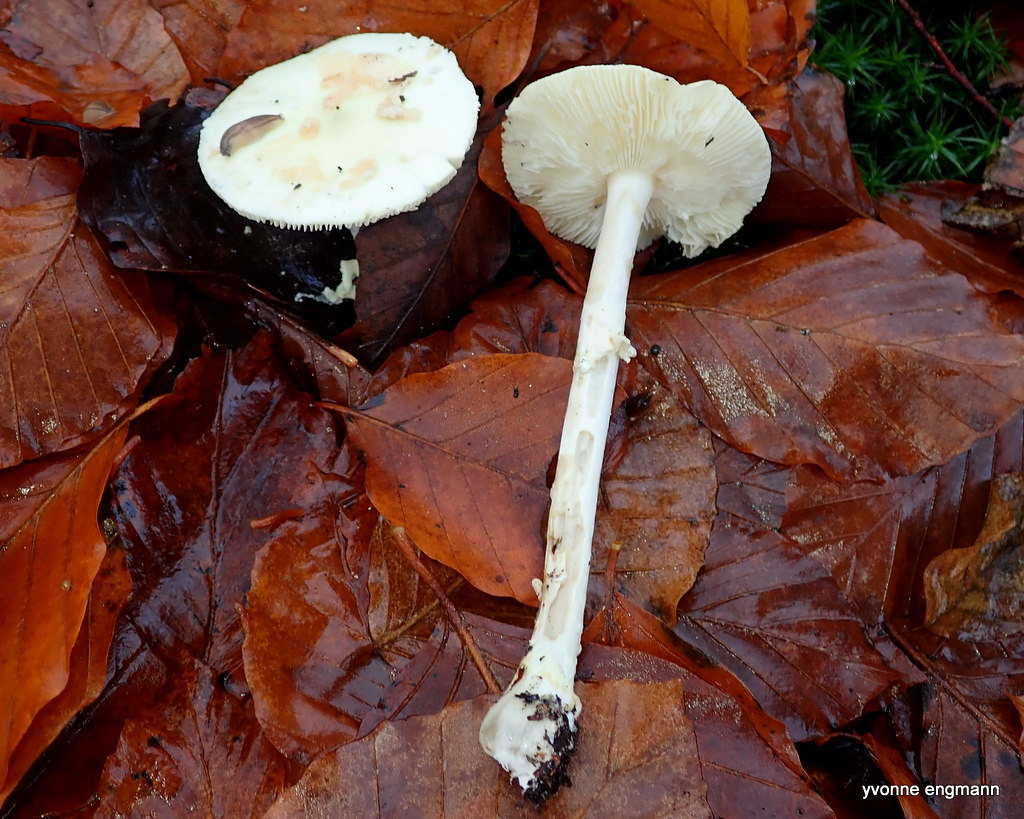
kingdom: Fungi
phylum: Basidiomycota
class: Agaricomycetes
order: Agaricales
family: Amanitaceae
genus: Amanita
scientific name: Amanita citrina
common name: False death-cap
